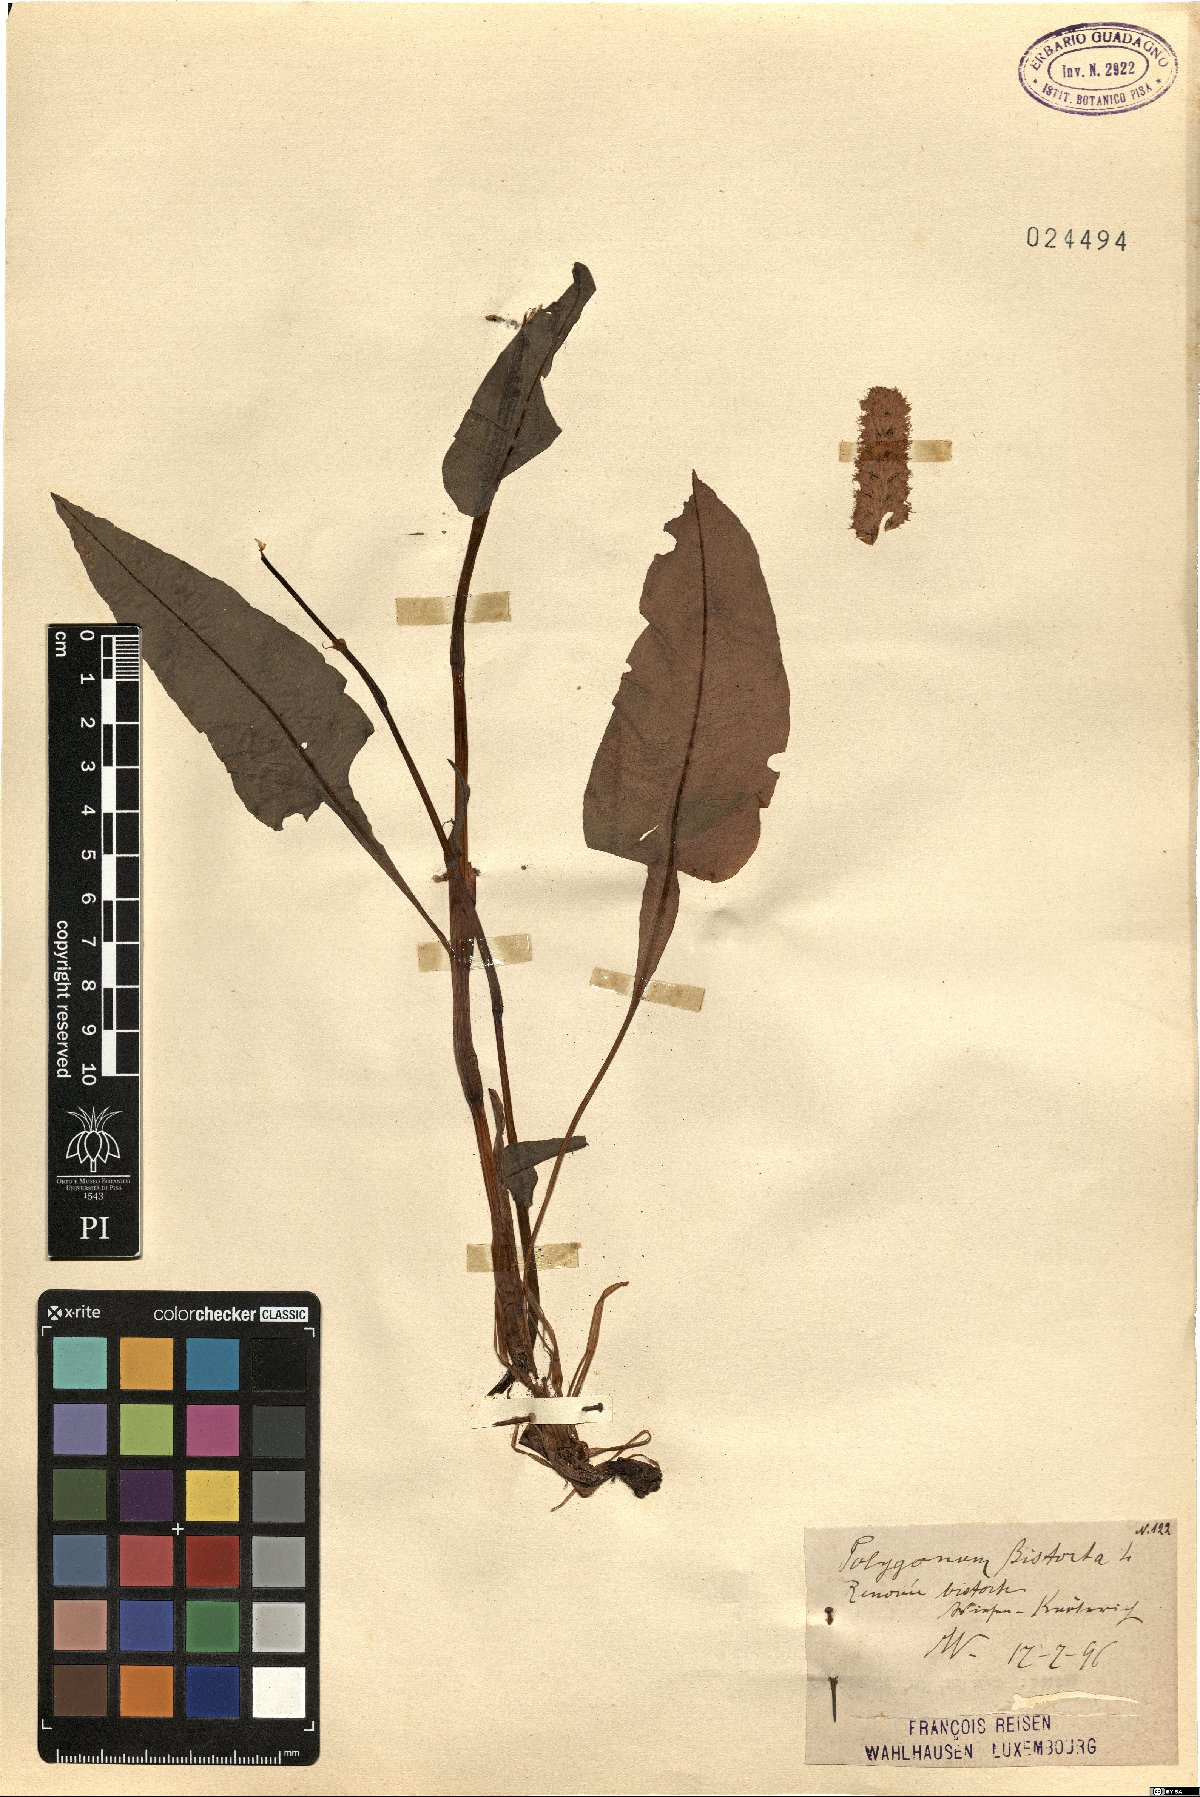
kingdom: Plantae
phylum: Tracheophyta
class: Magnoliopsida
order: Caryophyllales
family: Polygonaceae
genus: Bistorta
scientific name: Bistorta officinalis
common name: Common bistort
